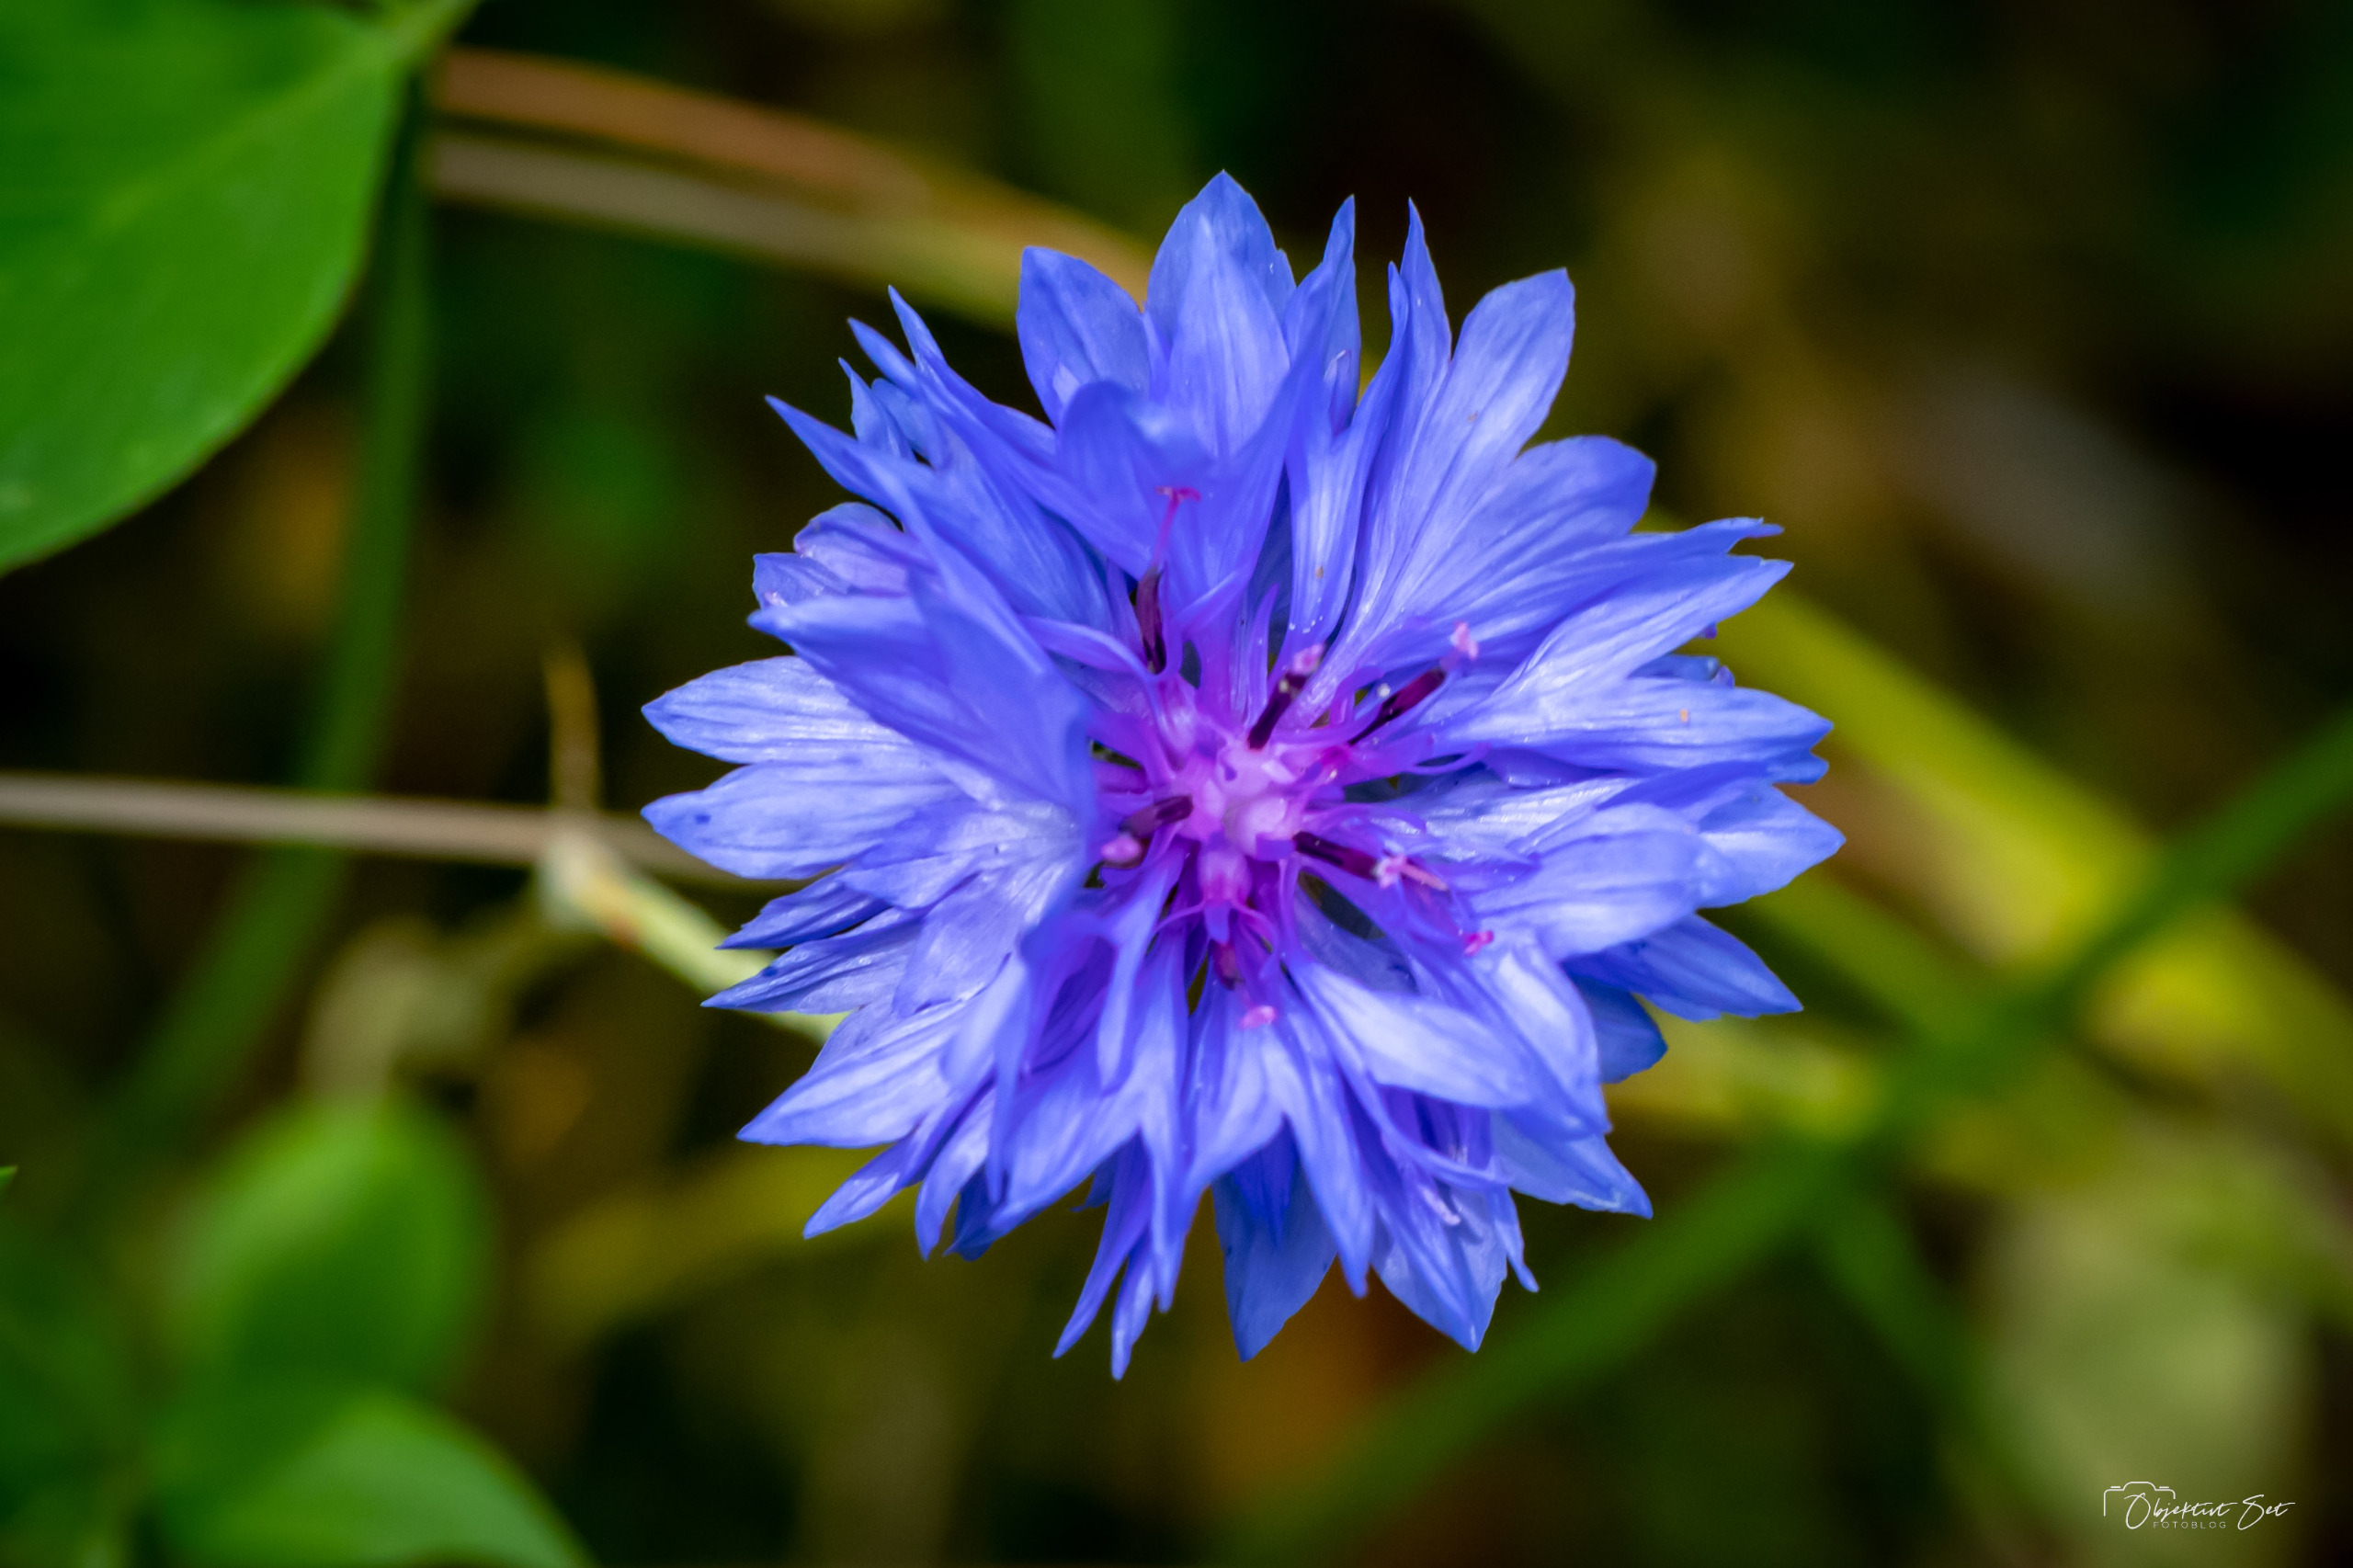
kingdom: Plantae
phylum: Tracheophyta
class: Magnoliopsida
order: Asterales
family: Asteraceae
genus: Centaurea
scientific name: Centaurea cyanus
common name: Kornblomst
